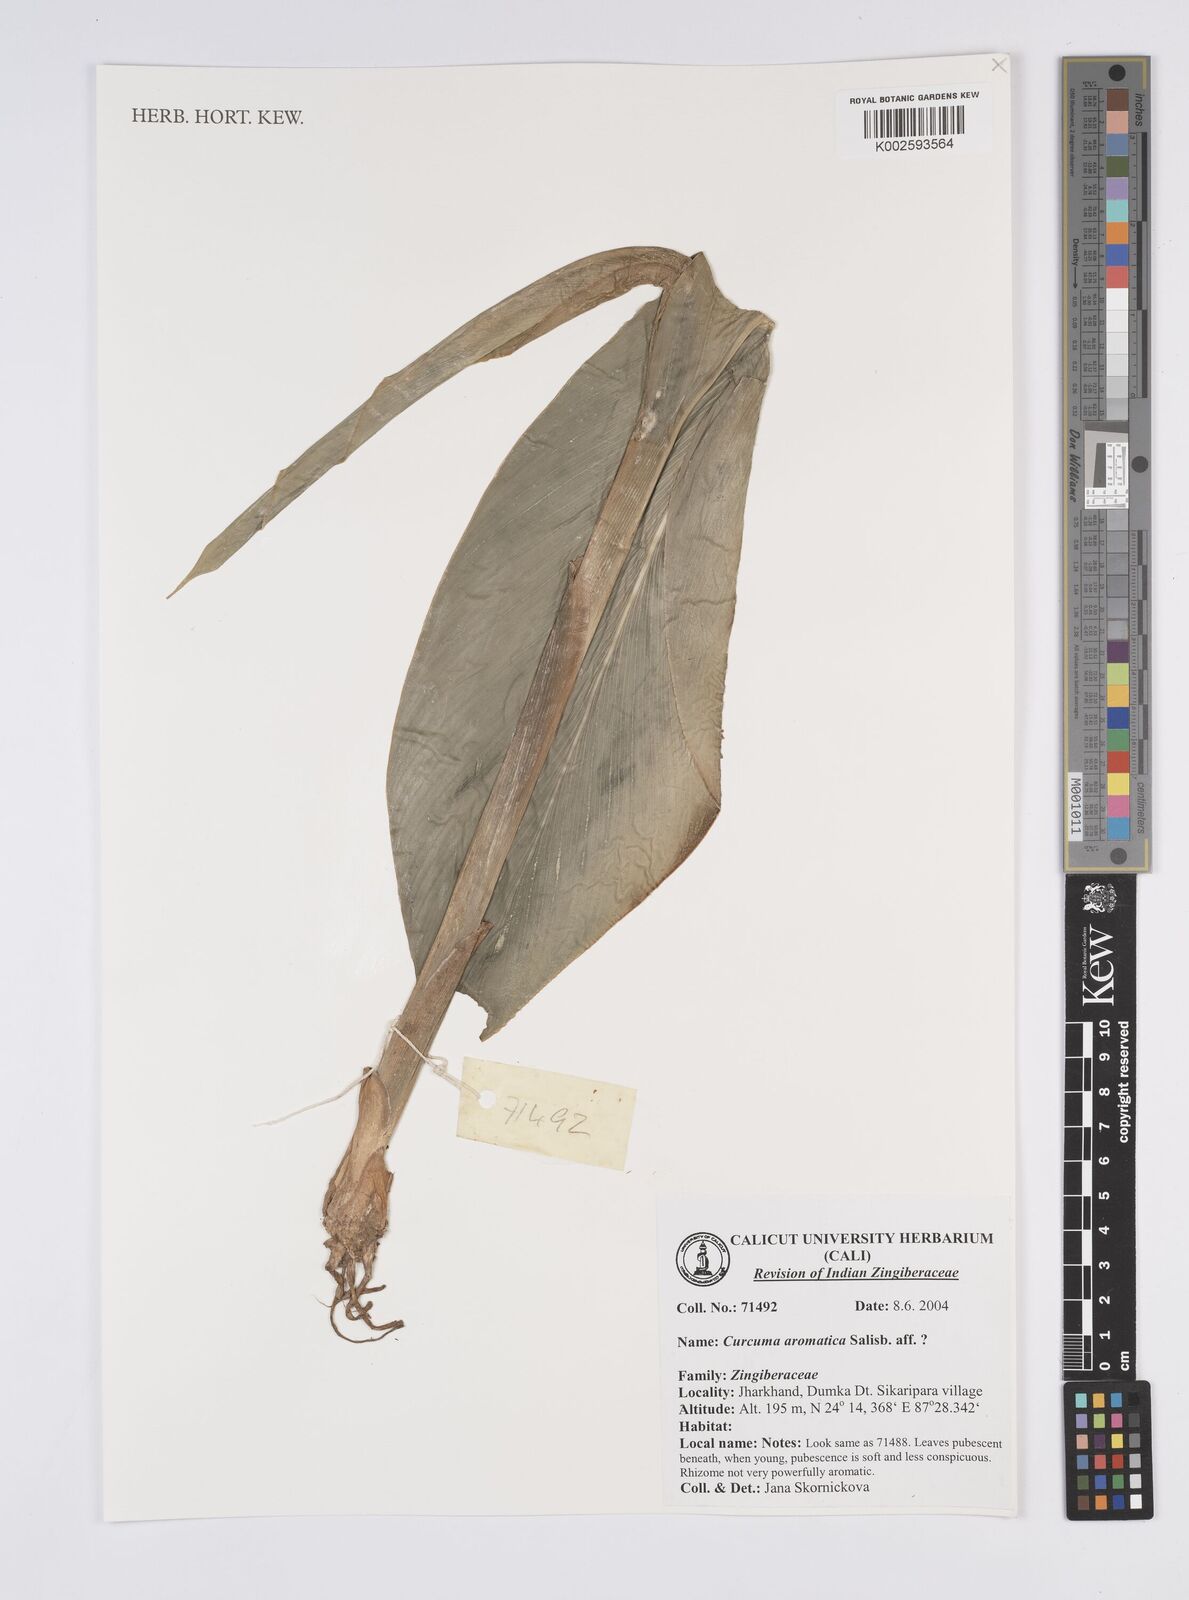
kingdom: Plantae
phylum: Tracheophyta
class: Liliopsida
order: Zingiberales
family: Zingiberaceae
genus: Curcuma
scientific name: Curcuma aromatica
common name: Wild turmeric
